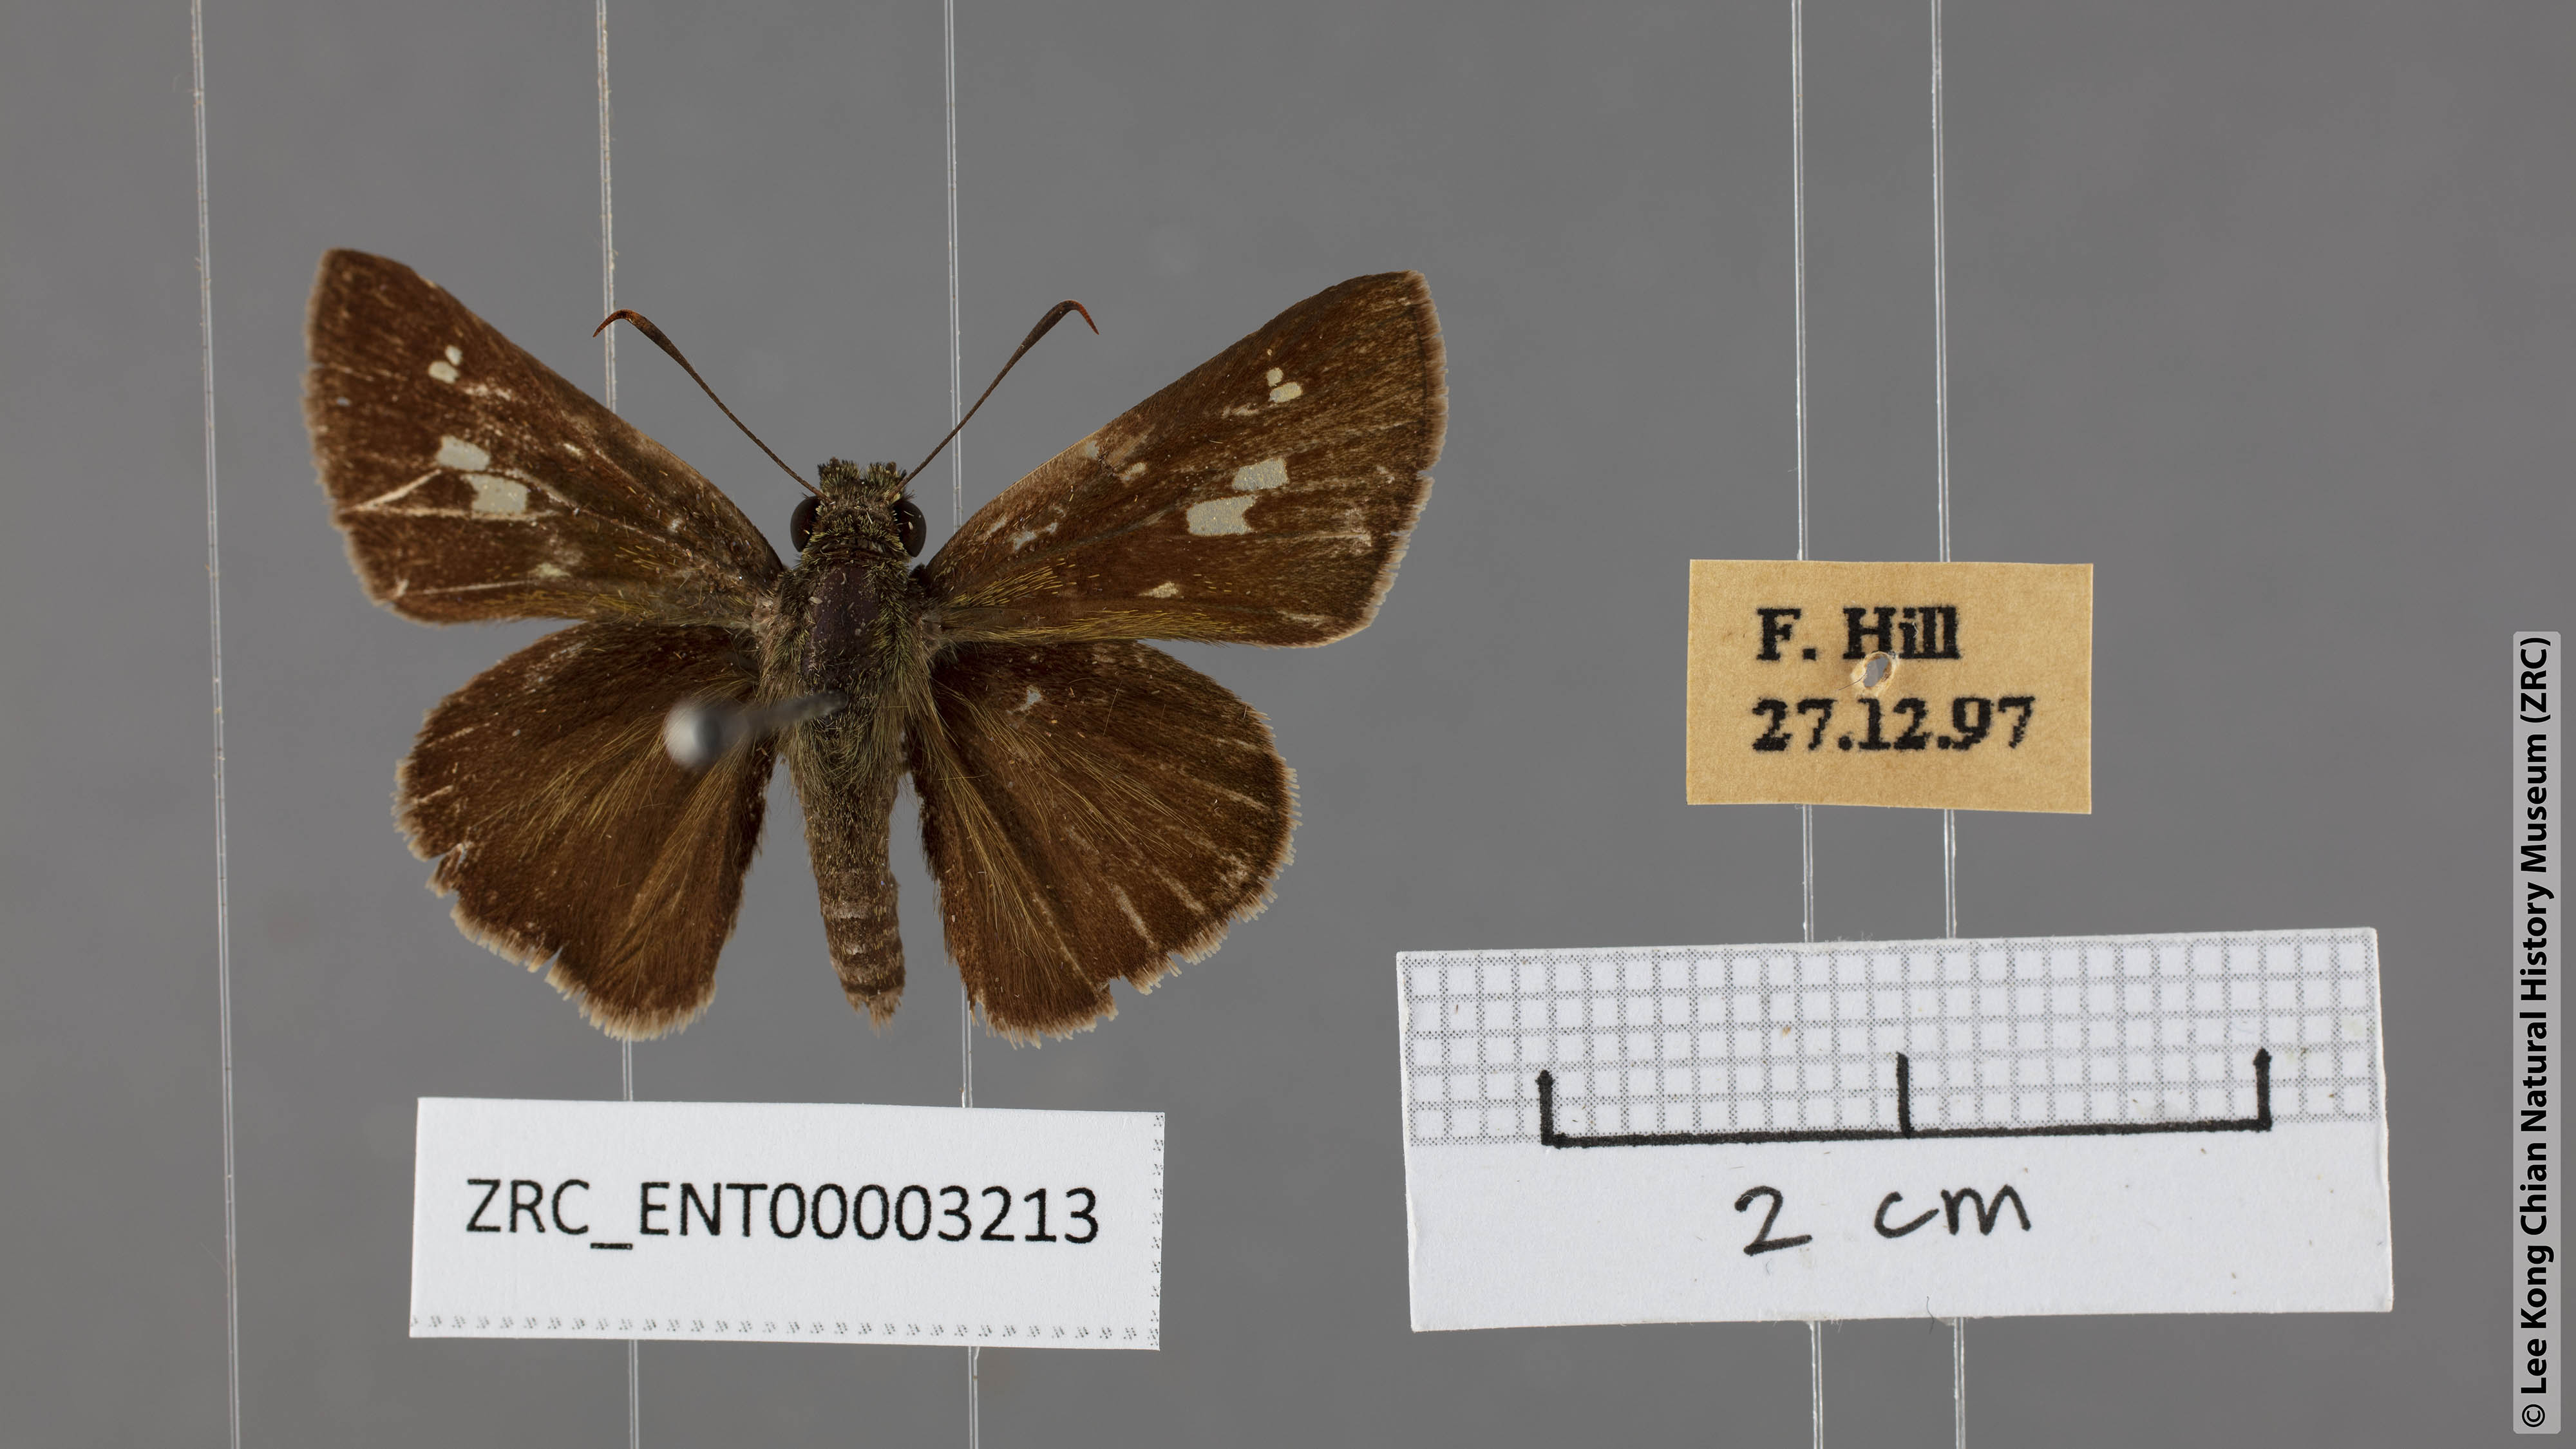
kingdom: Animalia
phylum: Arthropoda
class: Insecta
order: Lepidoptera
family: Hesperiidae
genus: Halpe
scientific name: Halpe arcuata
